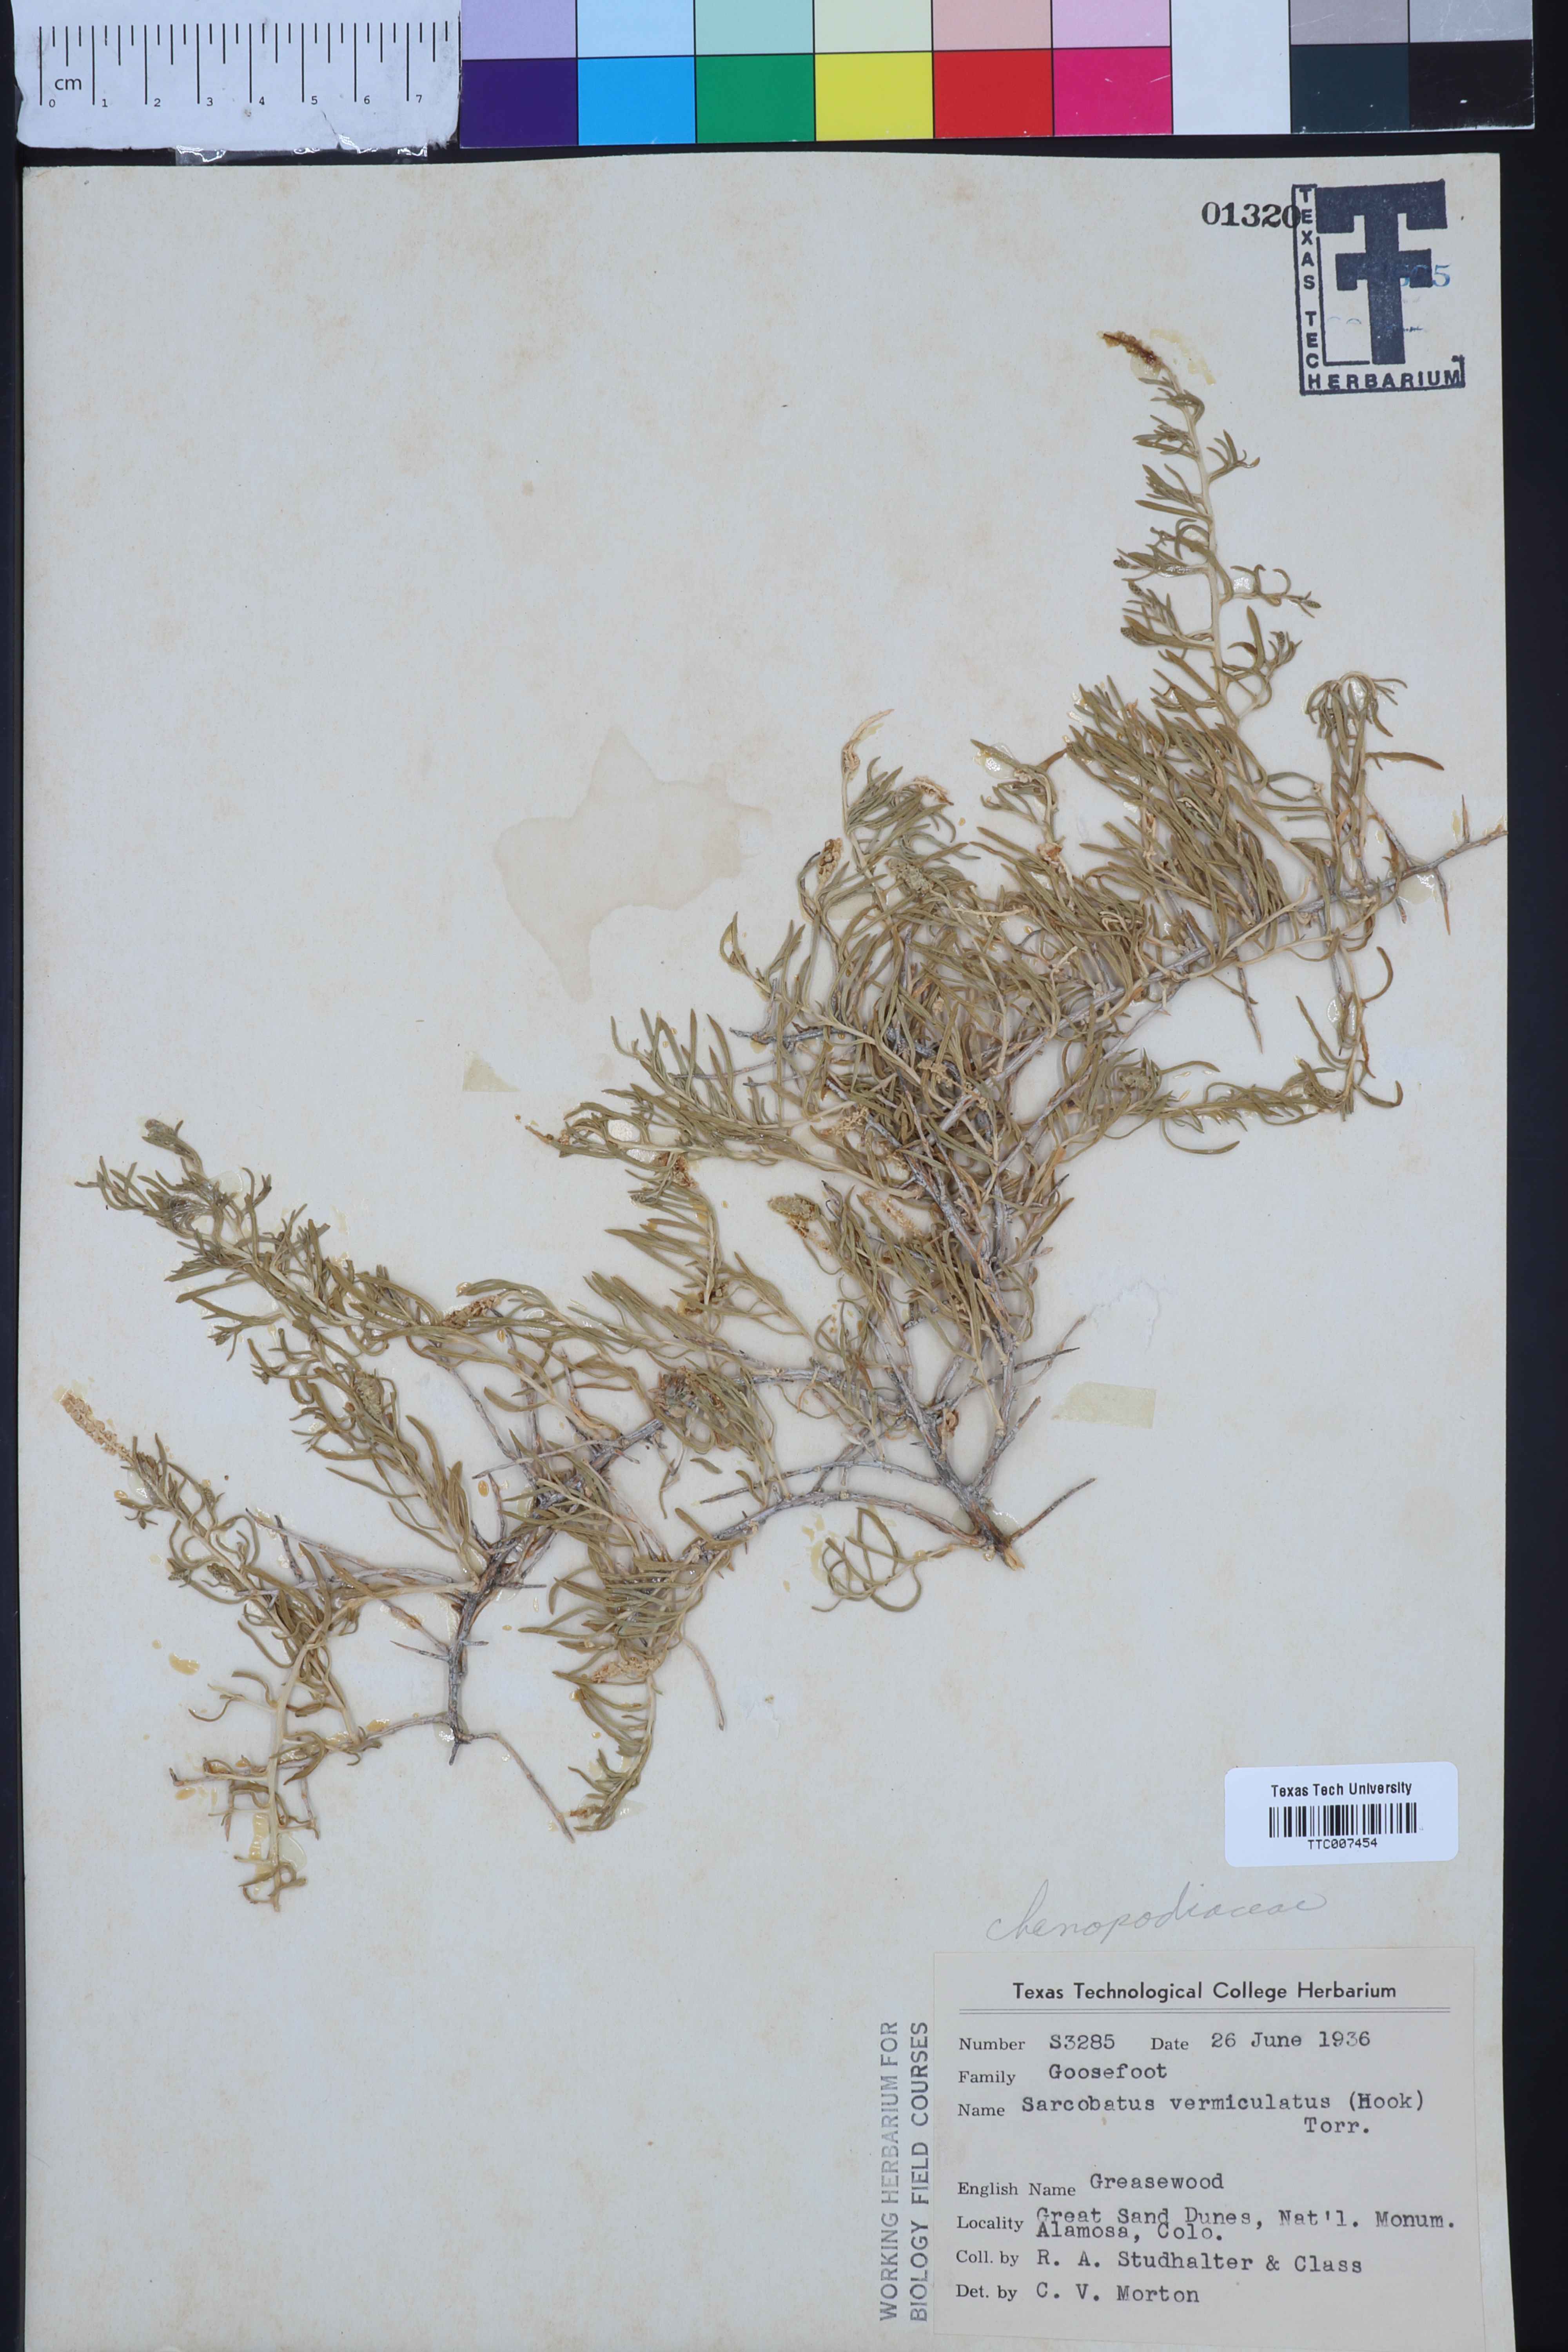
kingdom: Plantae
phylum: Tracheophyta
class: Magnoliopsida
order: Caryophyllales
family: Sarcobataceae
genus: Sarcobatus
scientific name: Sarcobatus vermiculatus
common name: Greasewood
